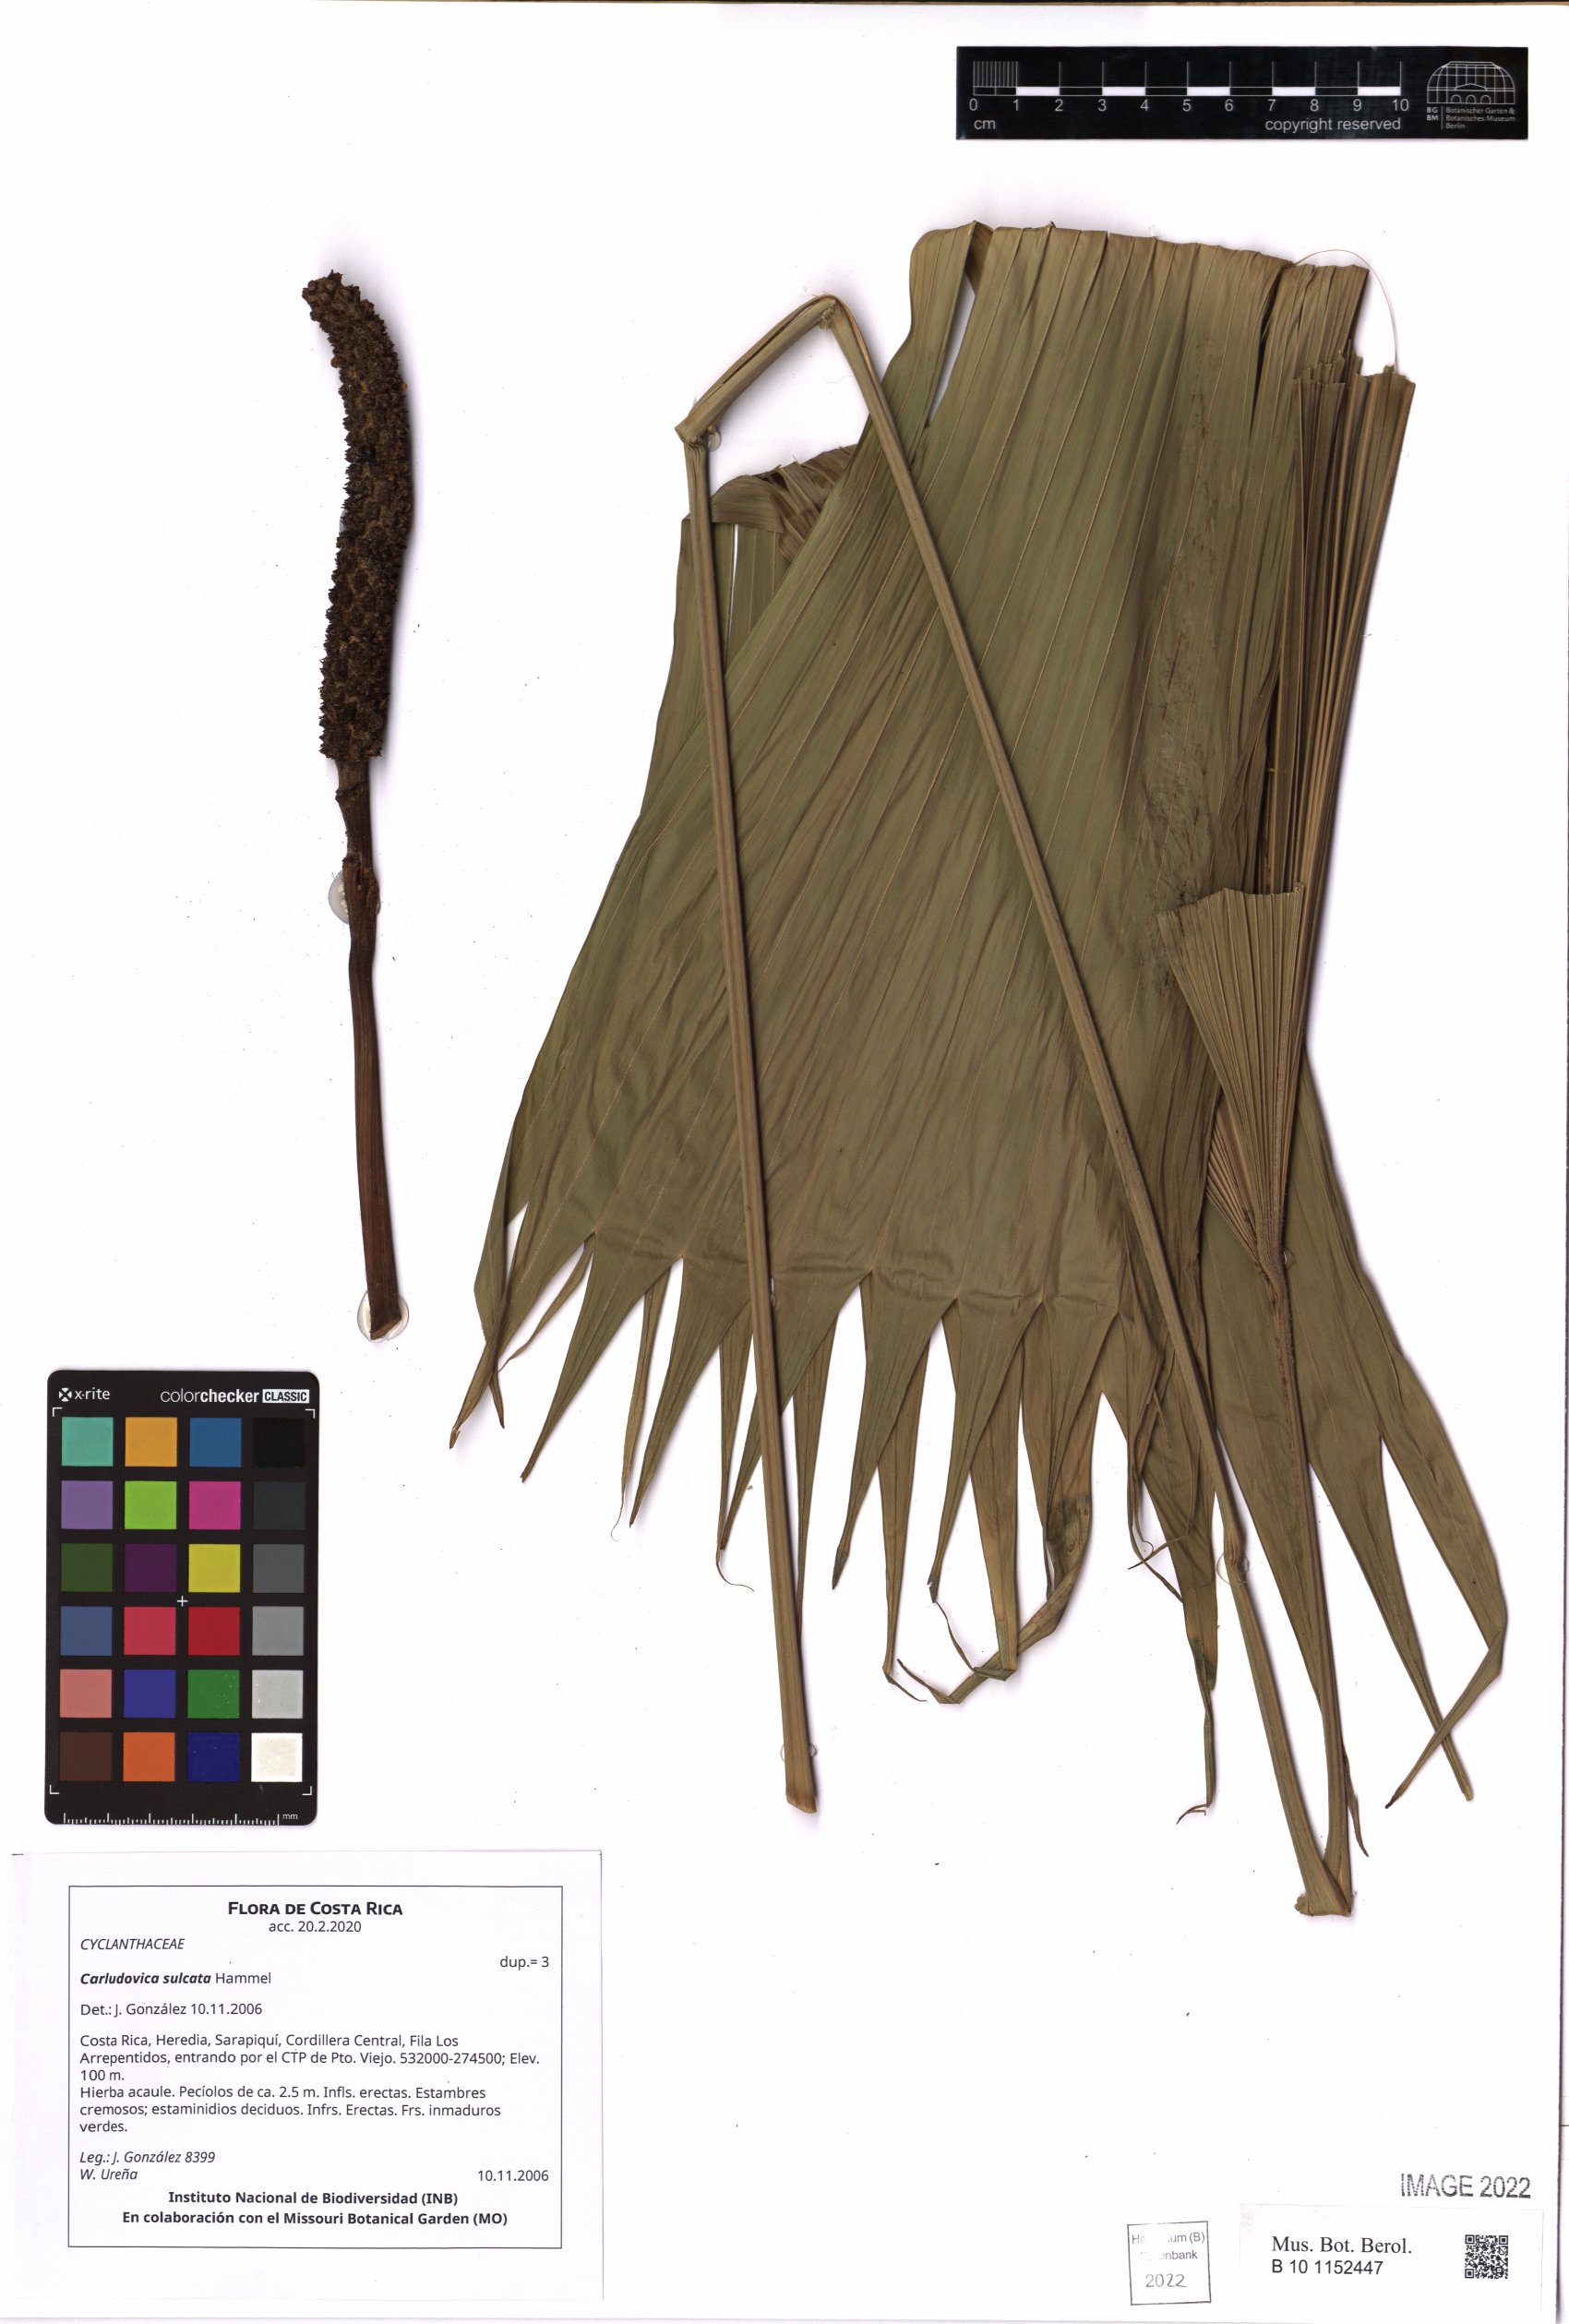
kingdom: Plantae
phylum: Charophyta
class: Charophyceae
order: Charales
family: Characeae
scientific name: Characeae
